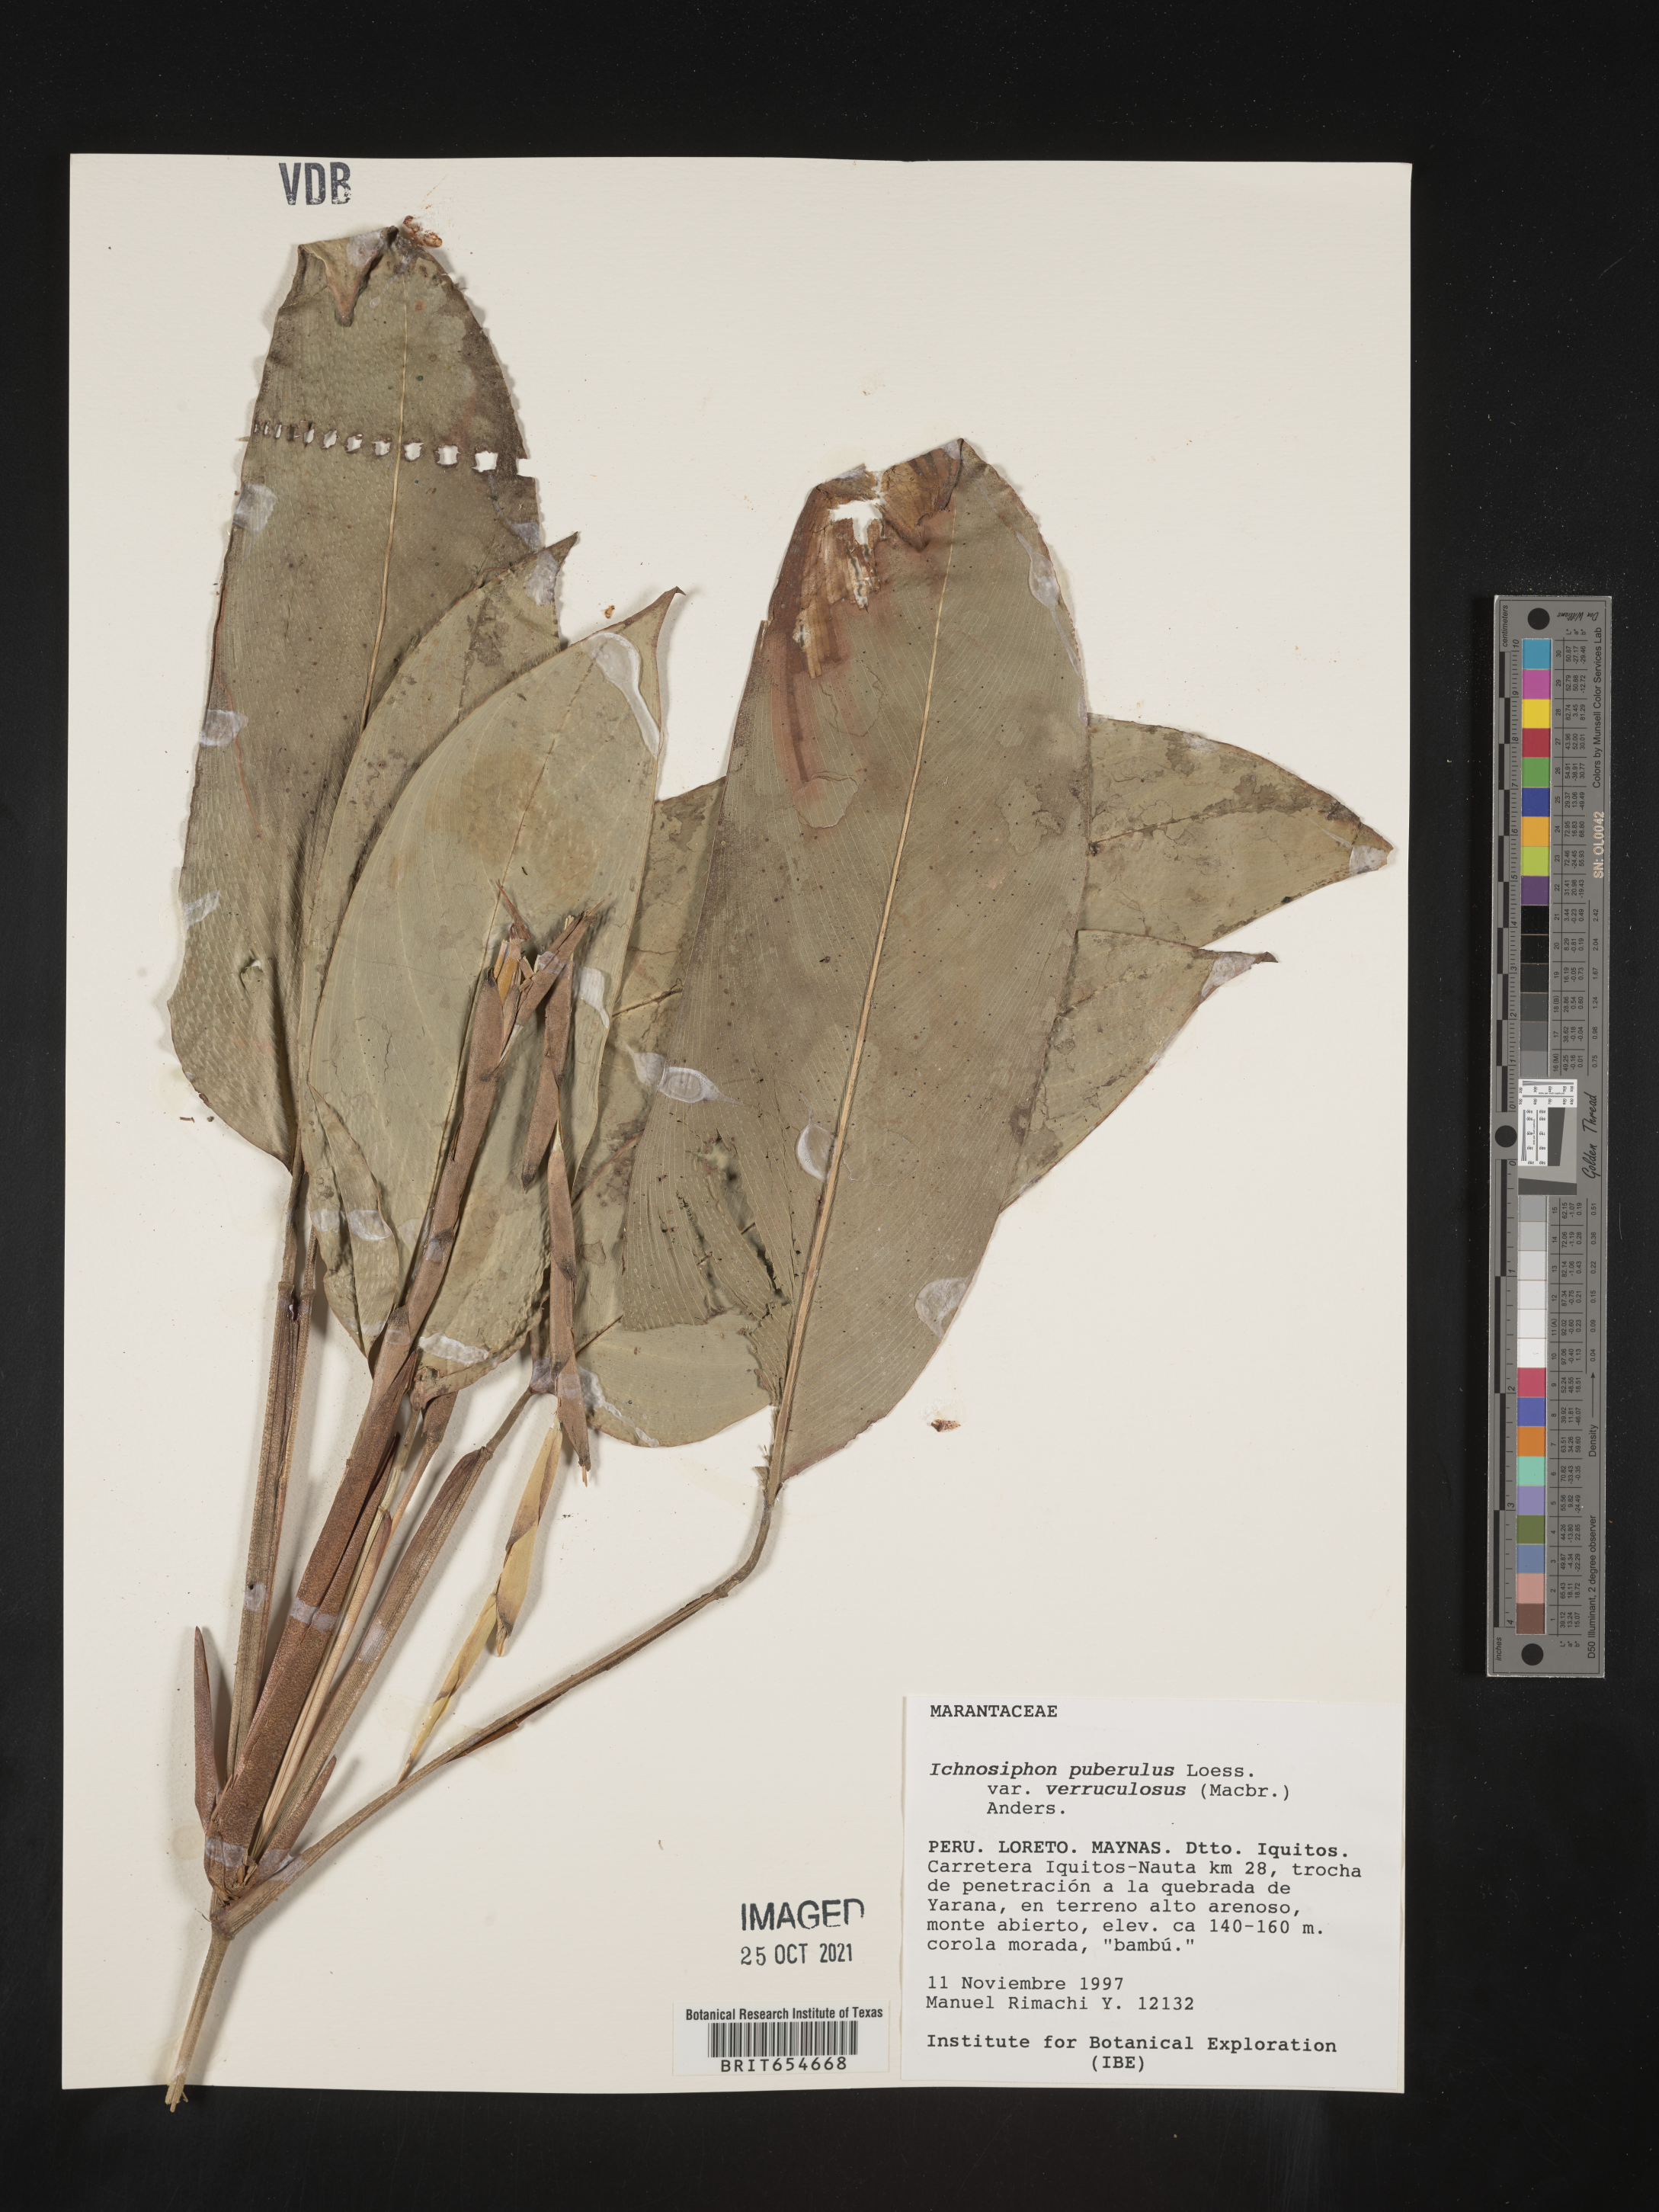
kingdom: Plantae
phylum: Tracheophyta
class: Liliopsida
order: Zingiberales
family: Marantaceae
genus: Ischnosiphon
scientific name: Ischnosiphon
